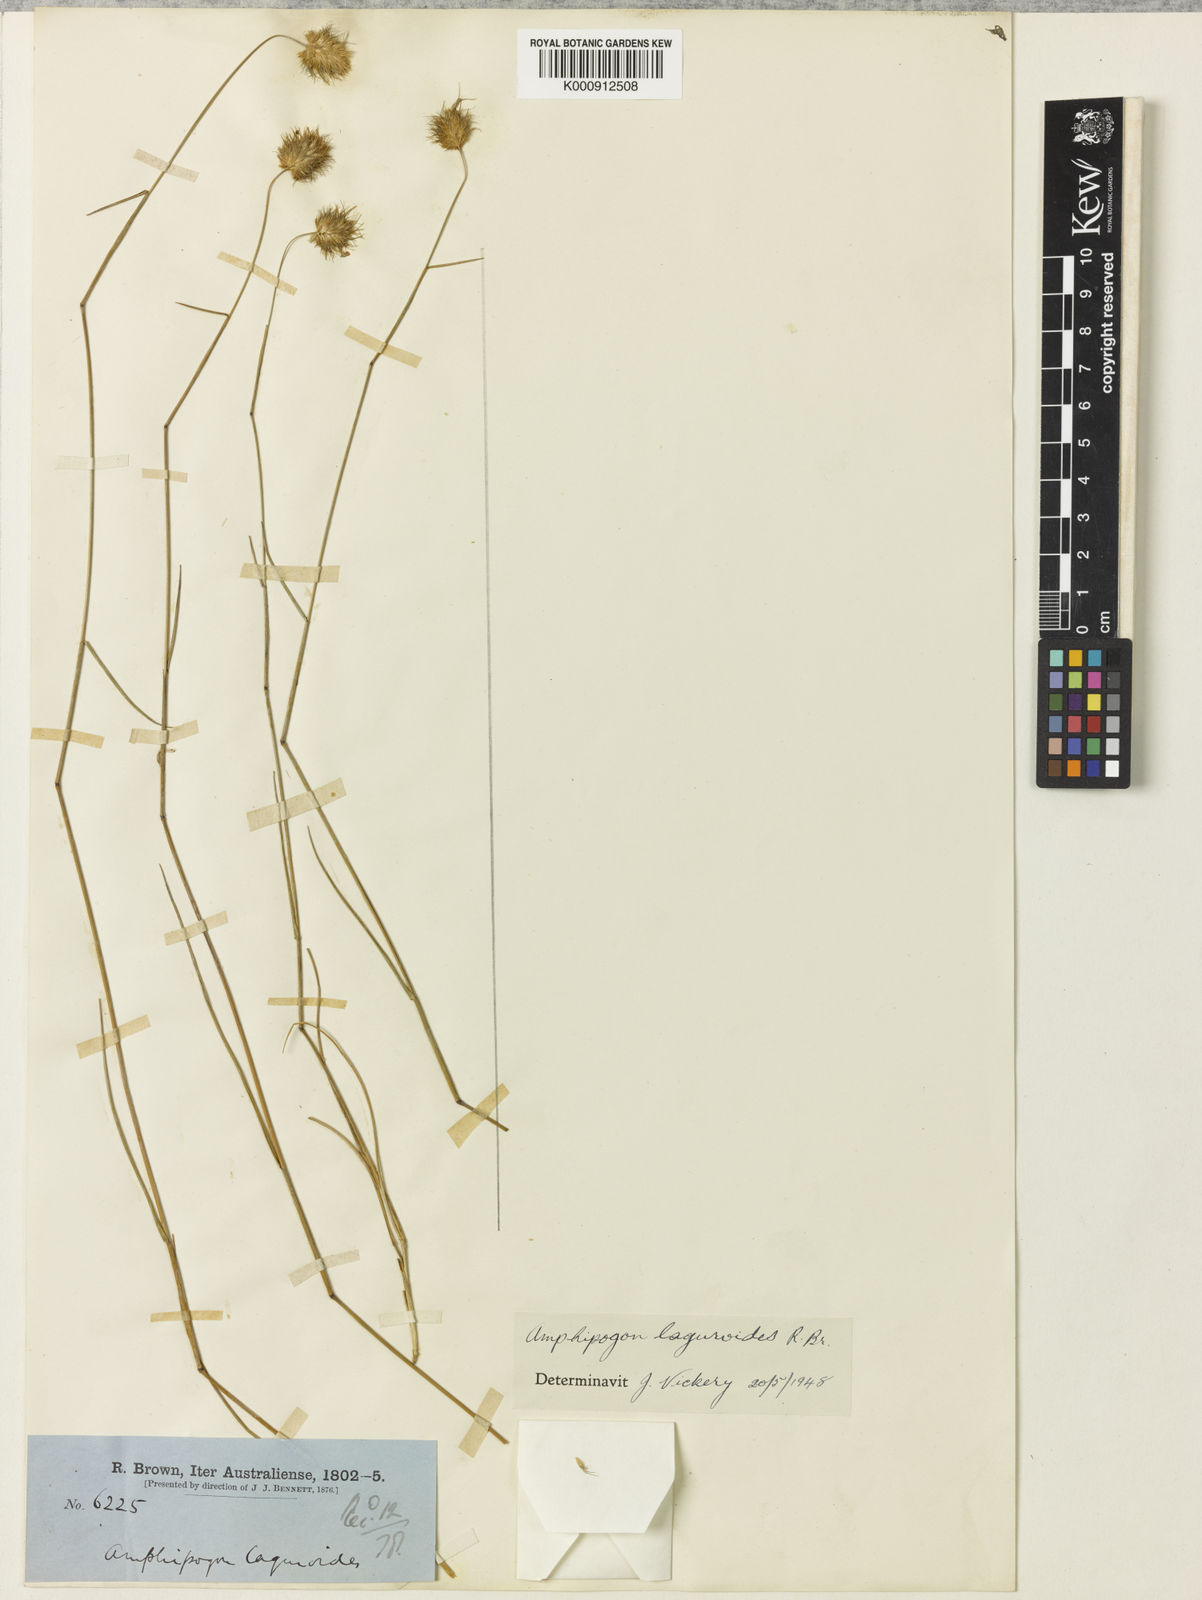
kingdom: Plantae
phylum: Tracheophyta
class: Liliopsida
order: Poales
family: Poaceae
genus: Amphipogon
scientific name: Amphipogon laguroides
